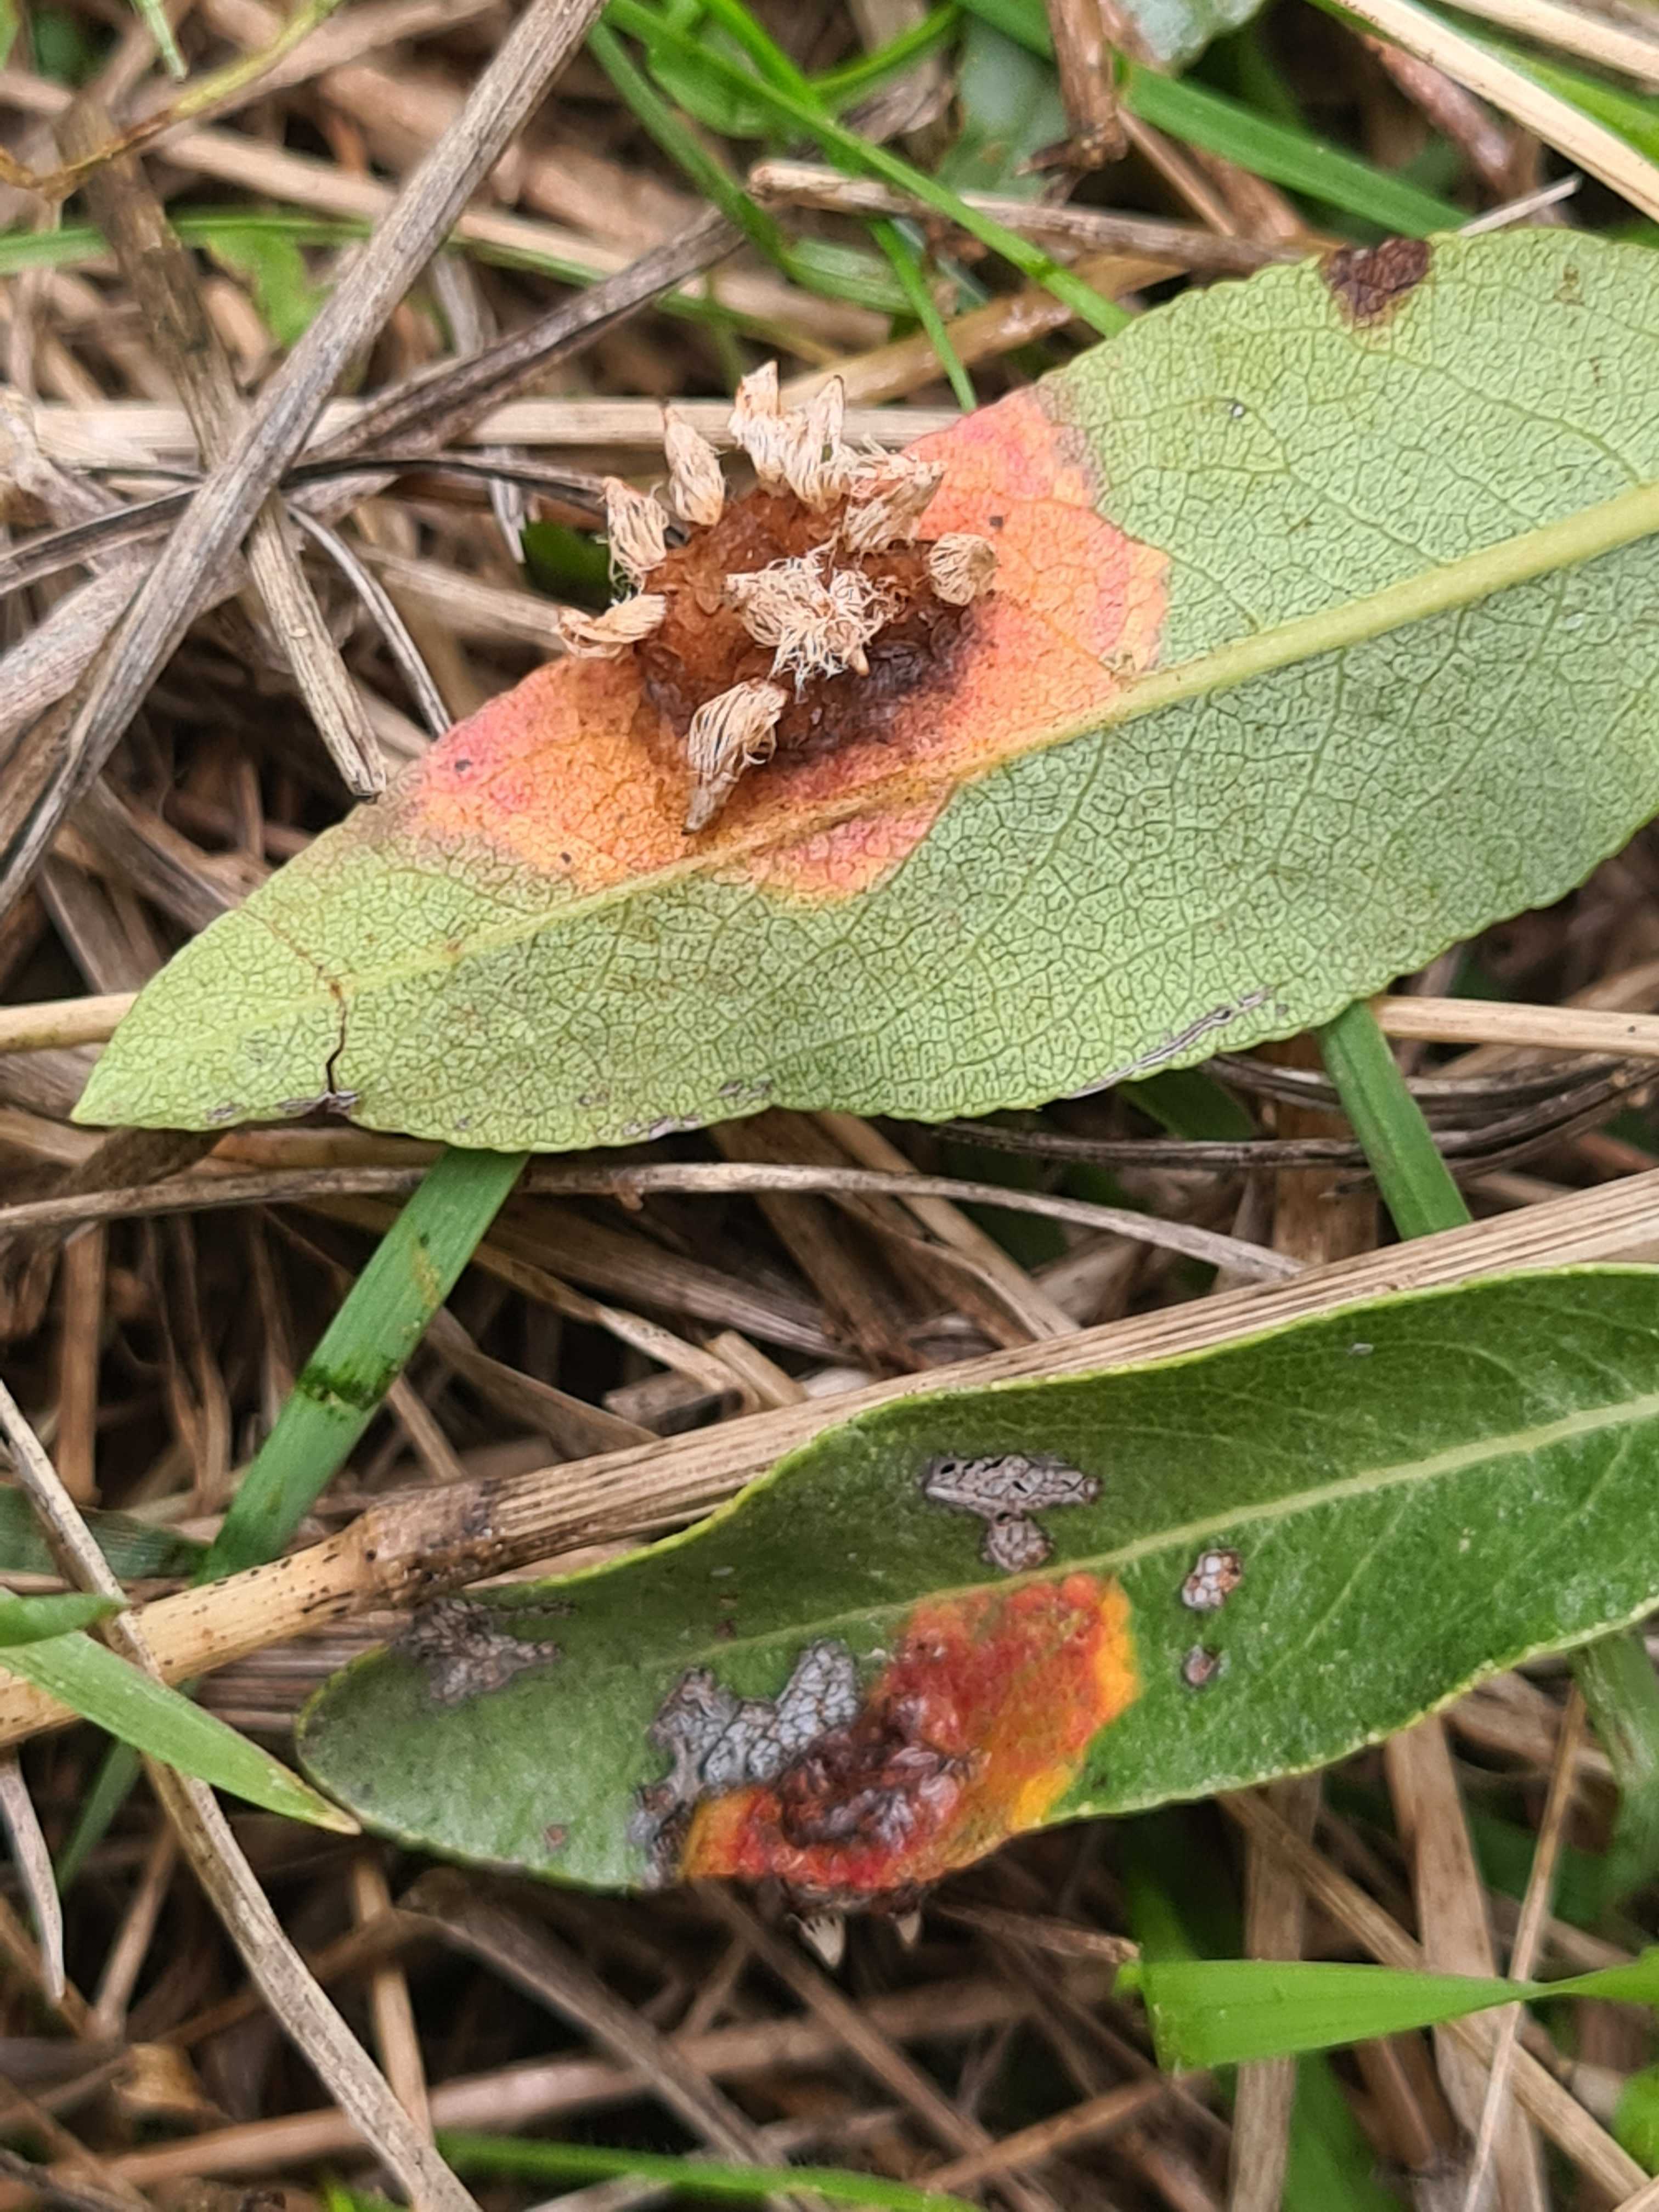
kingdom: Fungi
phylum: Basidiomycota
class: Pucciniomycetes
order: Pucciniales
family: Gymnosporangiaceae
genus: Gymnosporangium
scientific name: Gymnosporangium sabinae
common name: pæregitter-bævrerust
